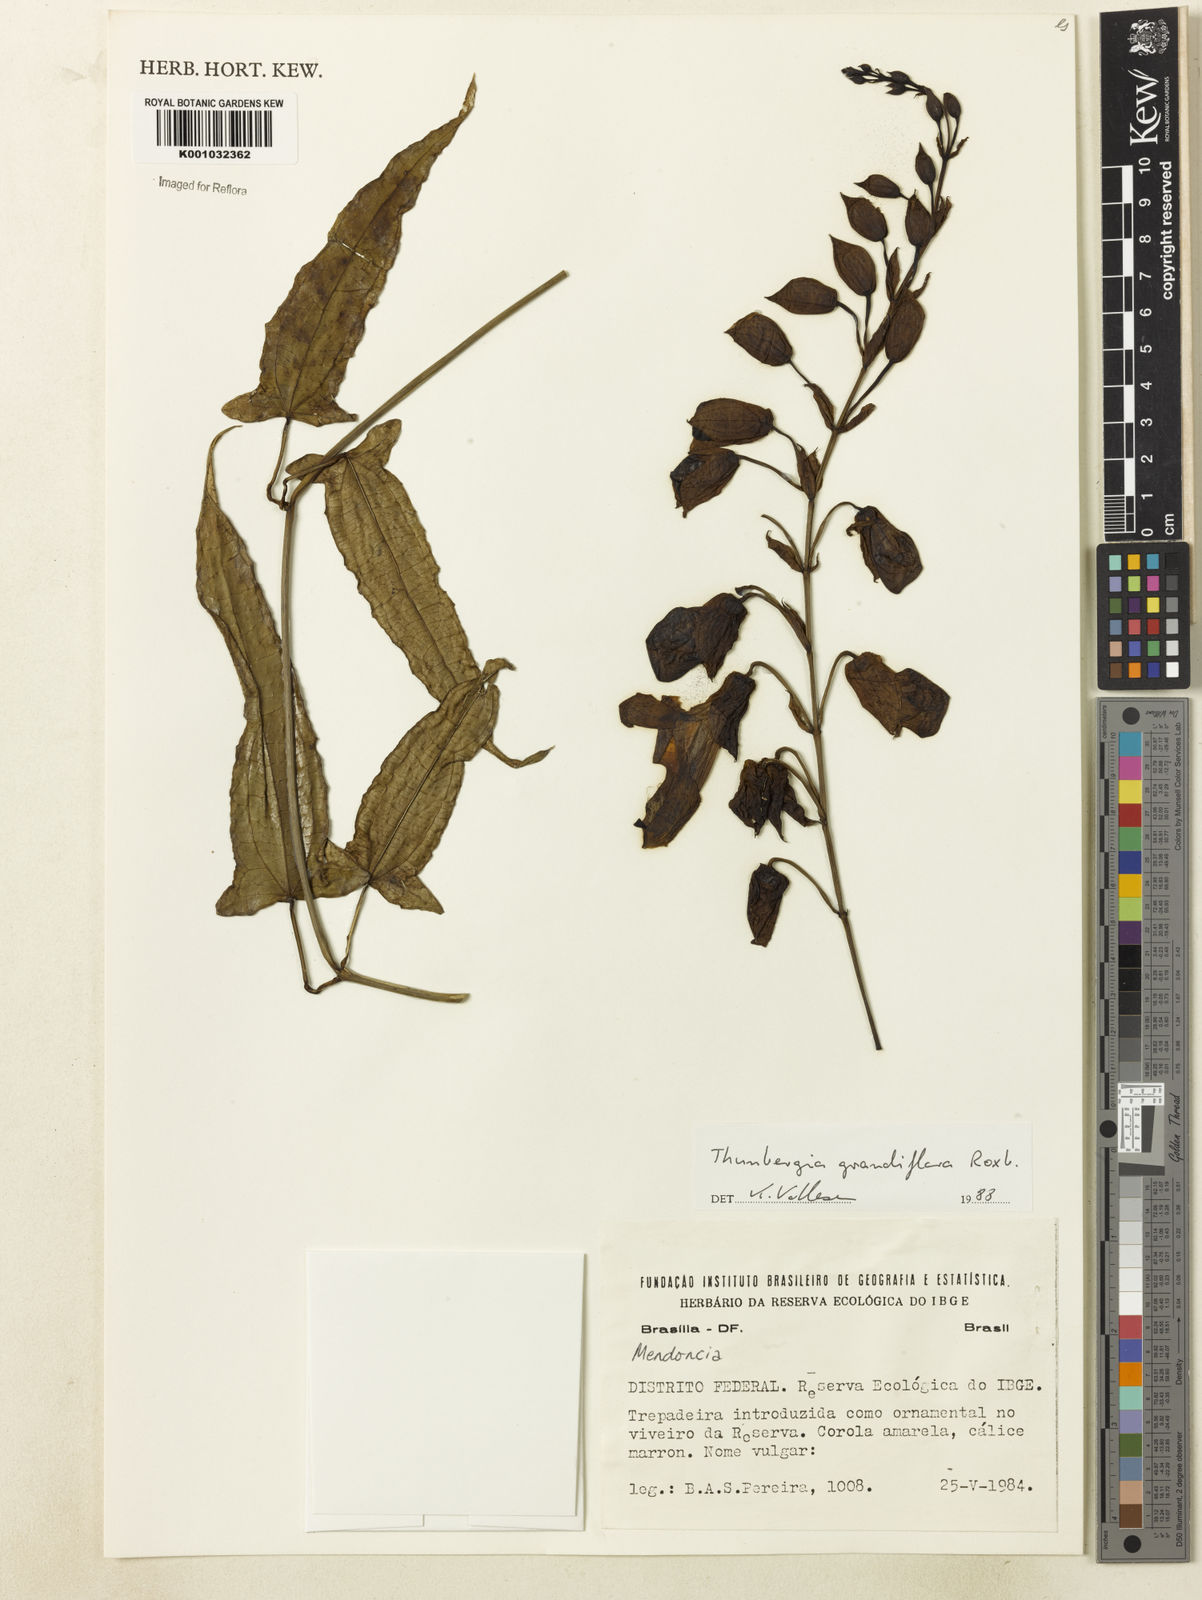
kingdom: Plantae
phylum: Tracheophyta
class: Magnoliopsida
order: Lamiales
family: Acanthaceae
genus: Thunbergia
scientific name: Thunbergia grandiflora
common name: Bengal trumpet
